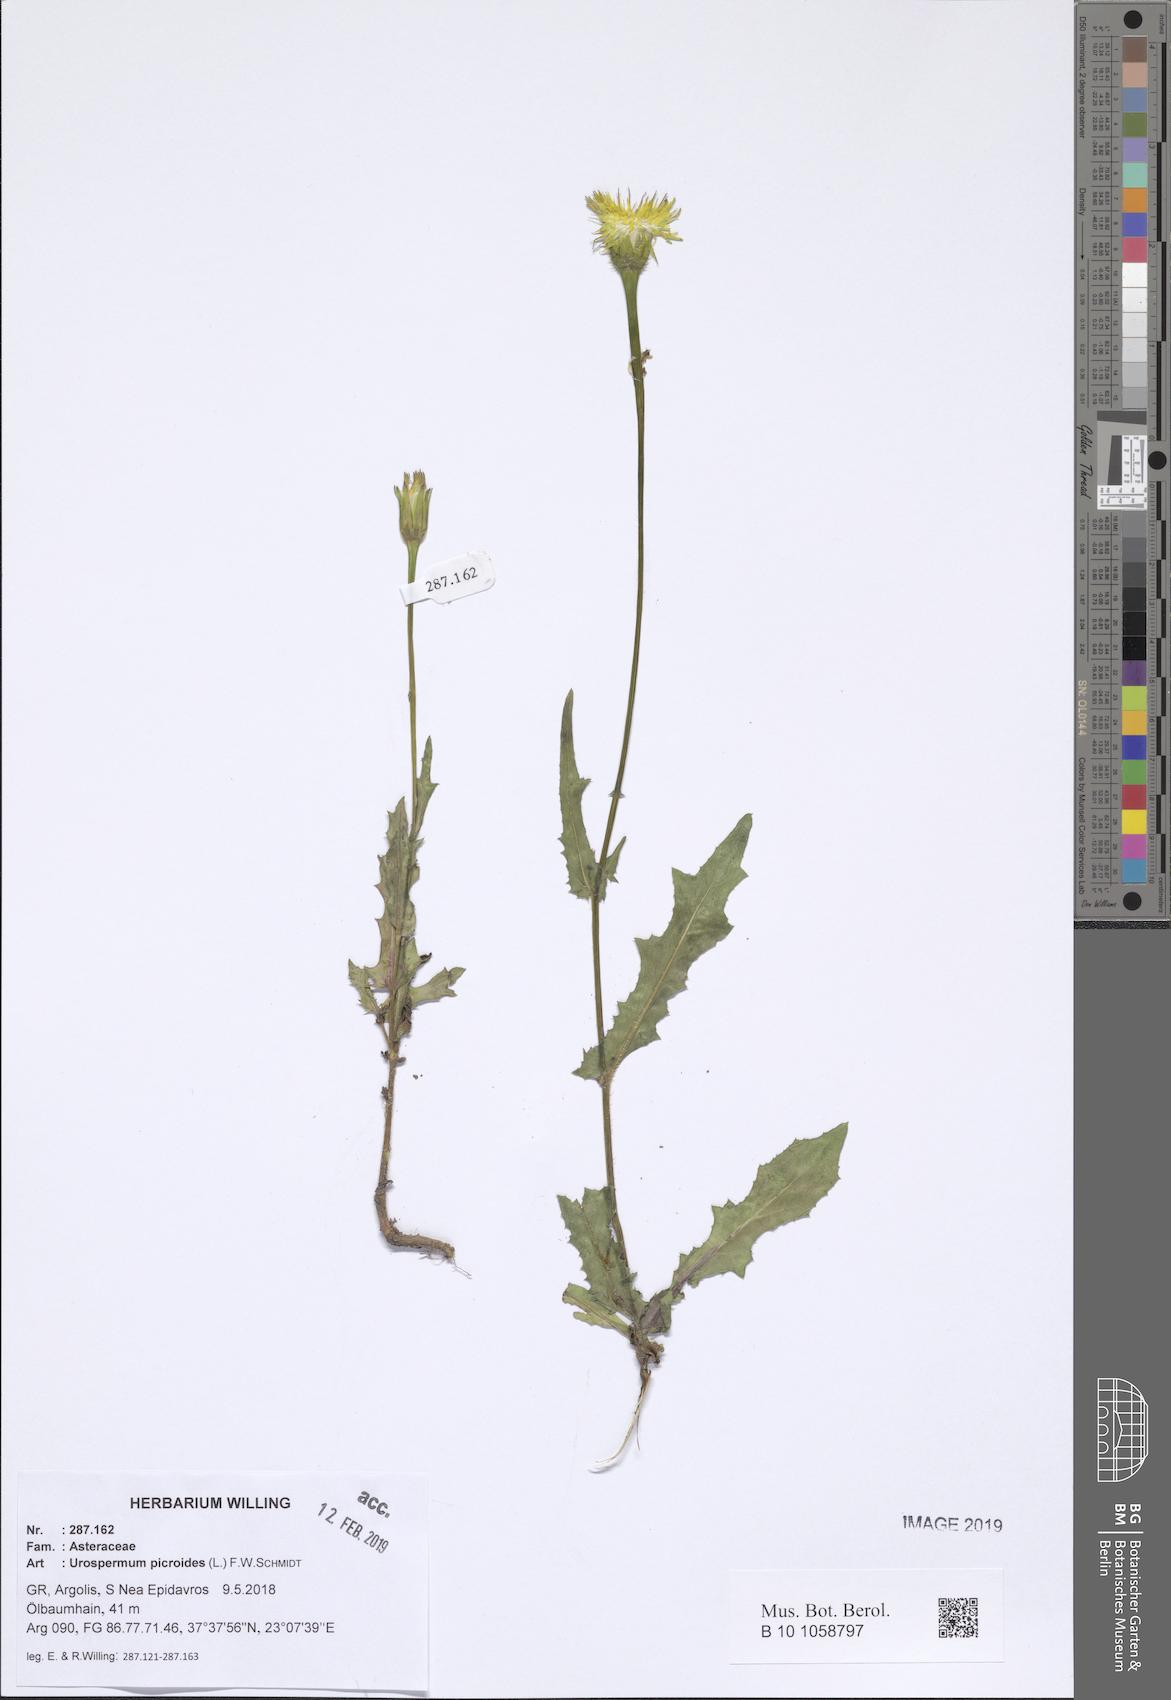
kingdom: Plantae
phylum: Tracheophyta
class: Magnoliopsida
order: Asterales
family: Asteraceae
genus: Urospermum
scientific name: Urospermum picroides
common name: False hawkbit
